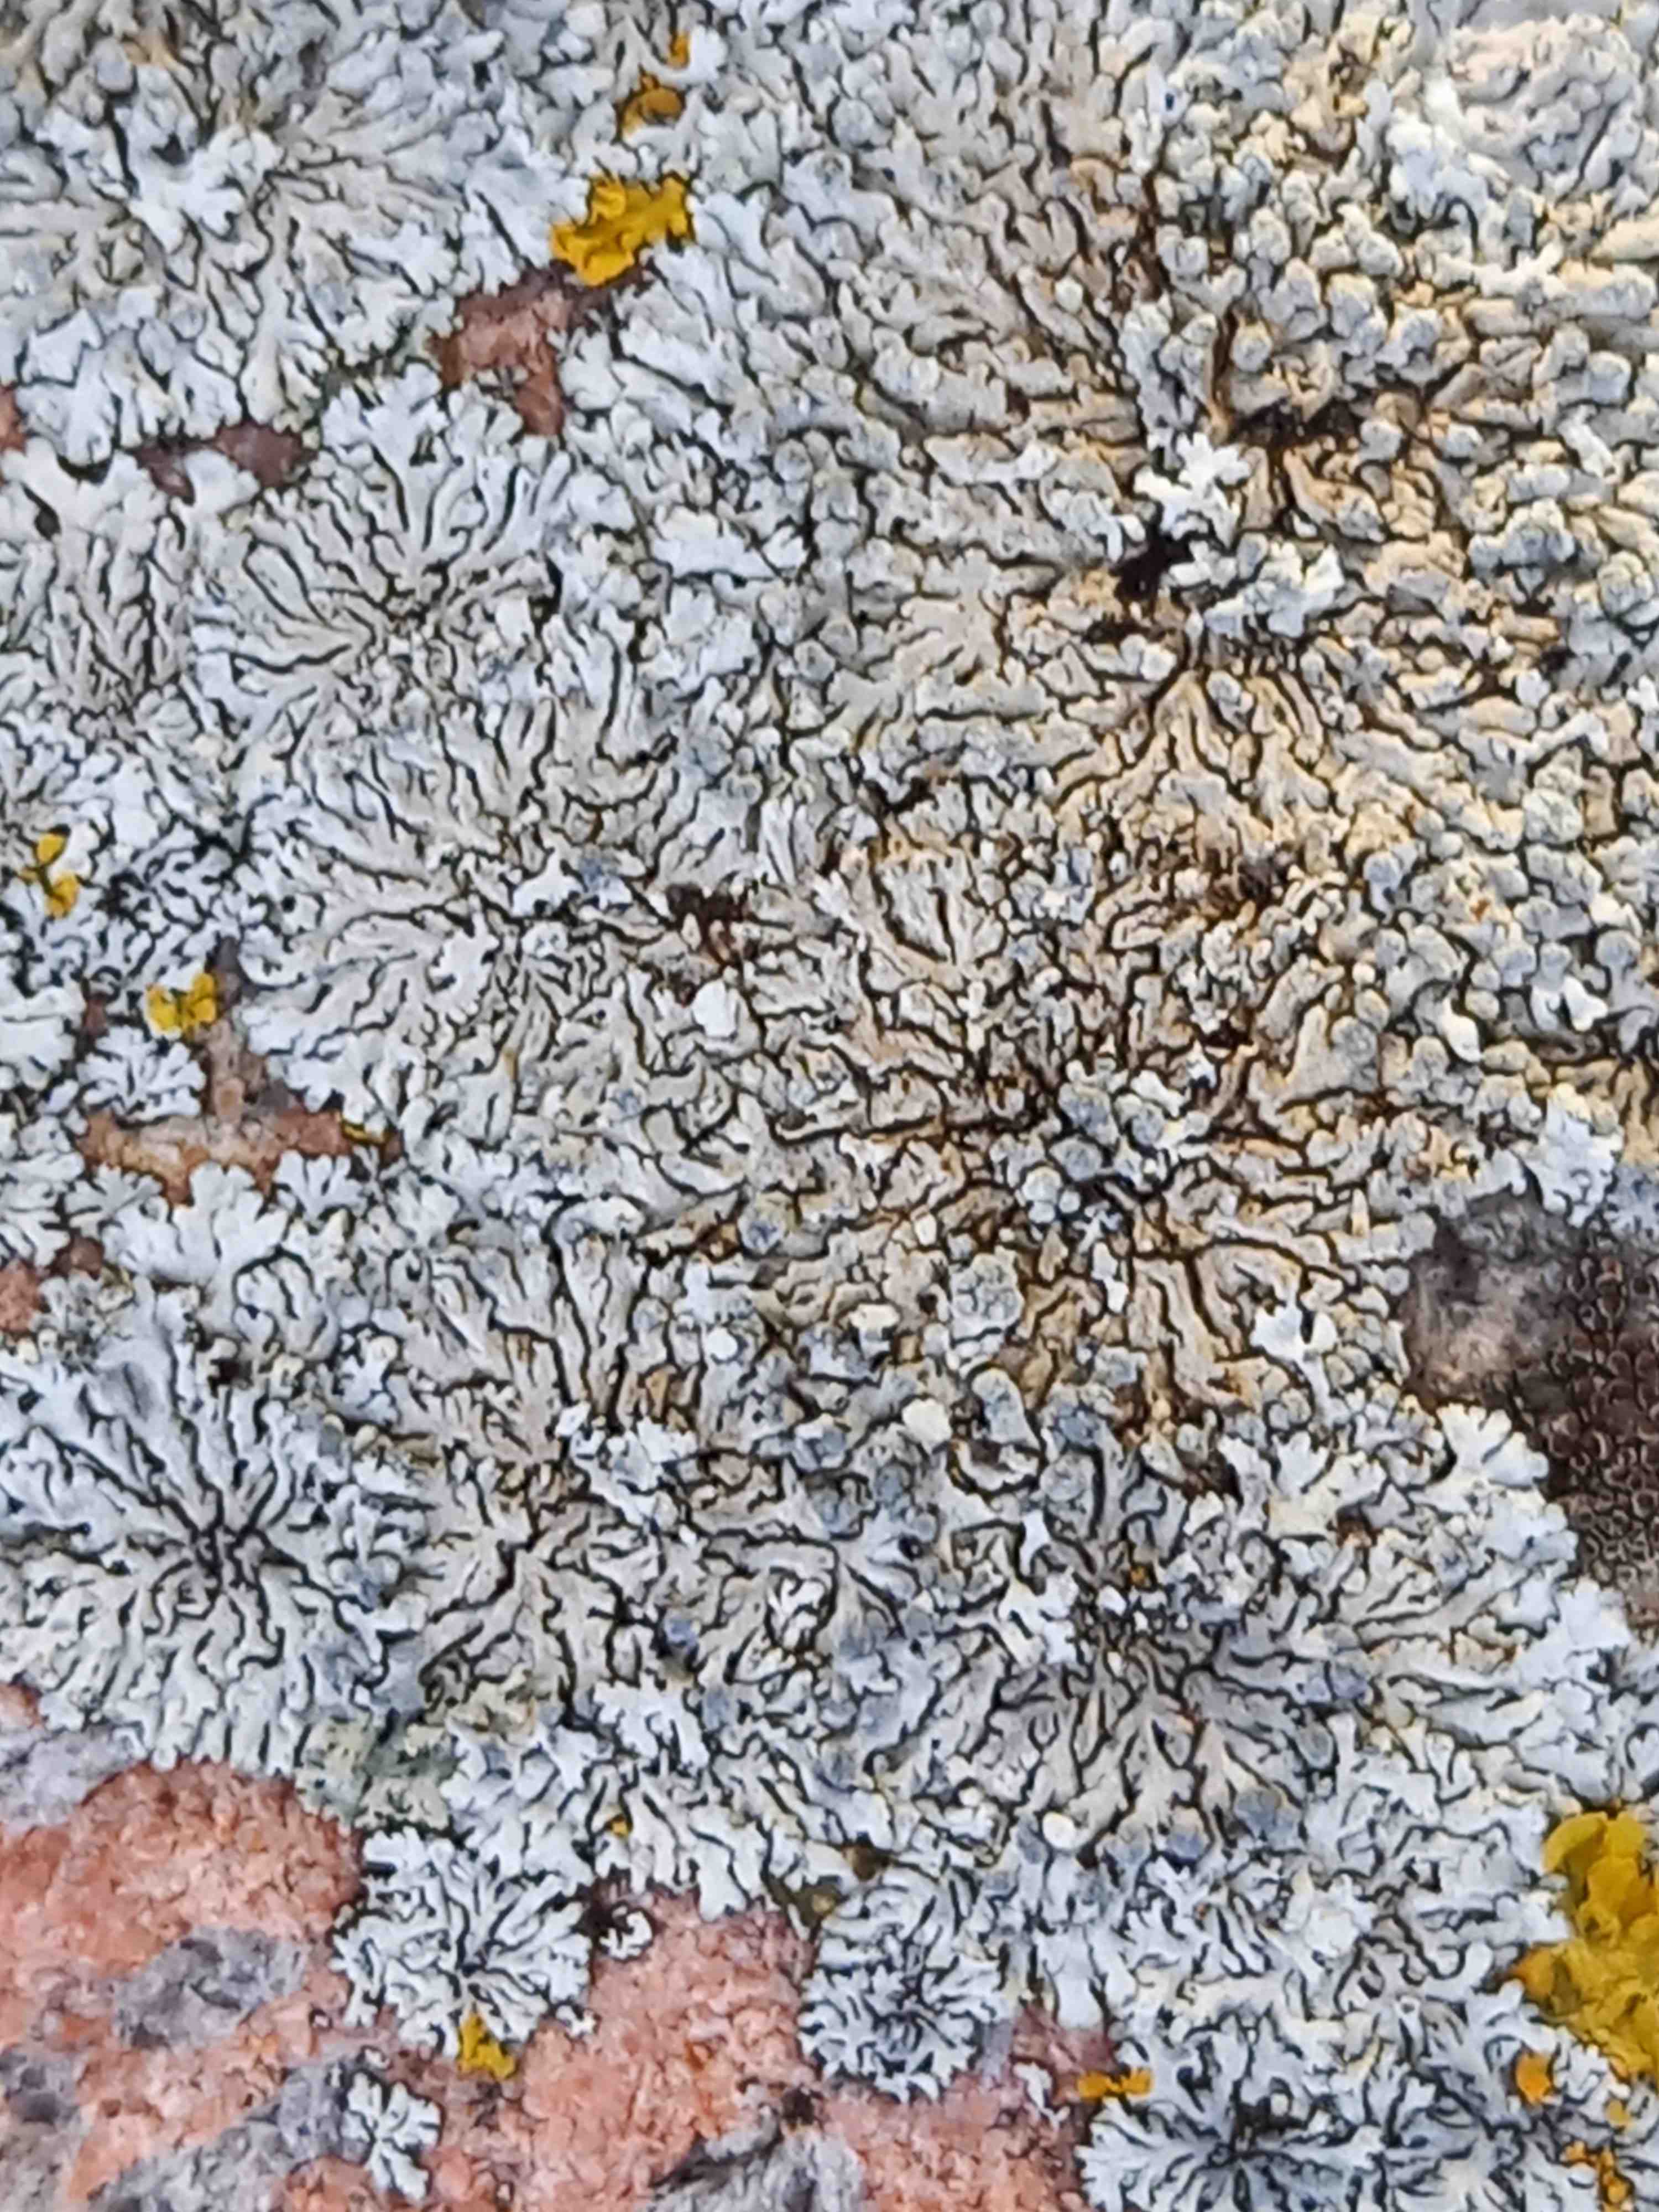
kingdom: Fungi
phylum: Ascomycota
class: Lecanoromycetes
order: Caliciales
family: Physciaceae
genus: Physcia
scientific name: Physcia caesia
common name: blågrå rosetlav
